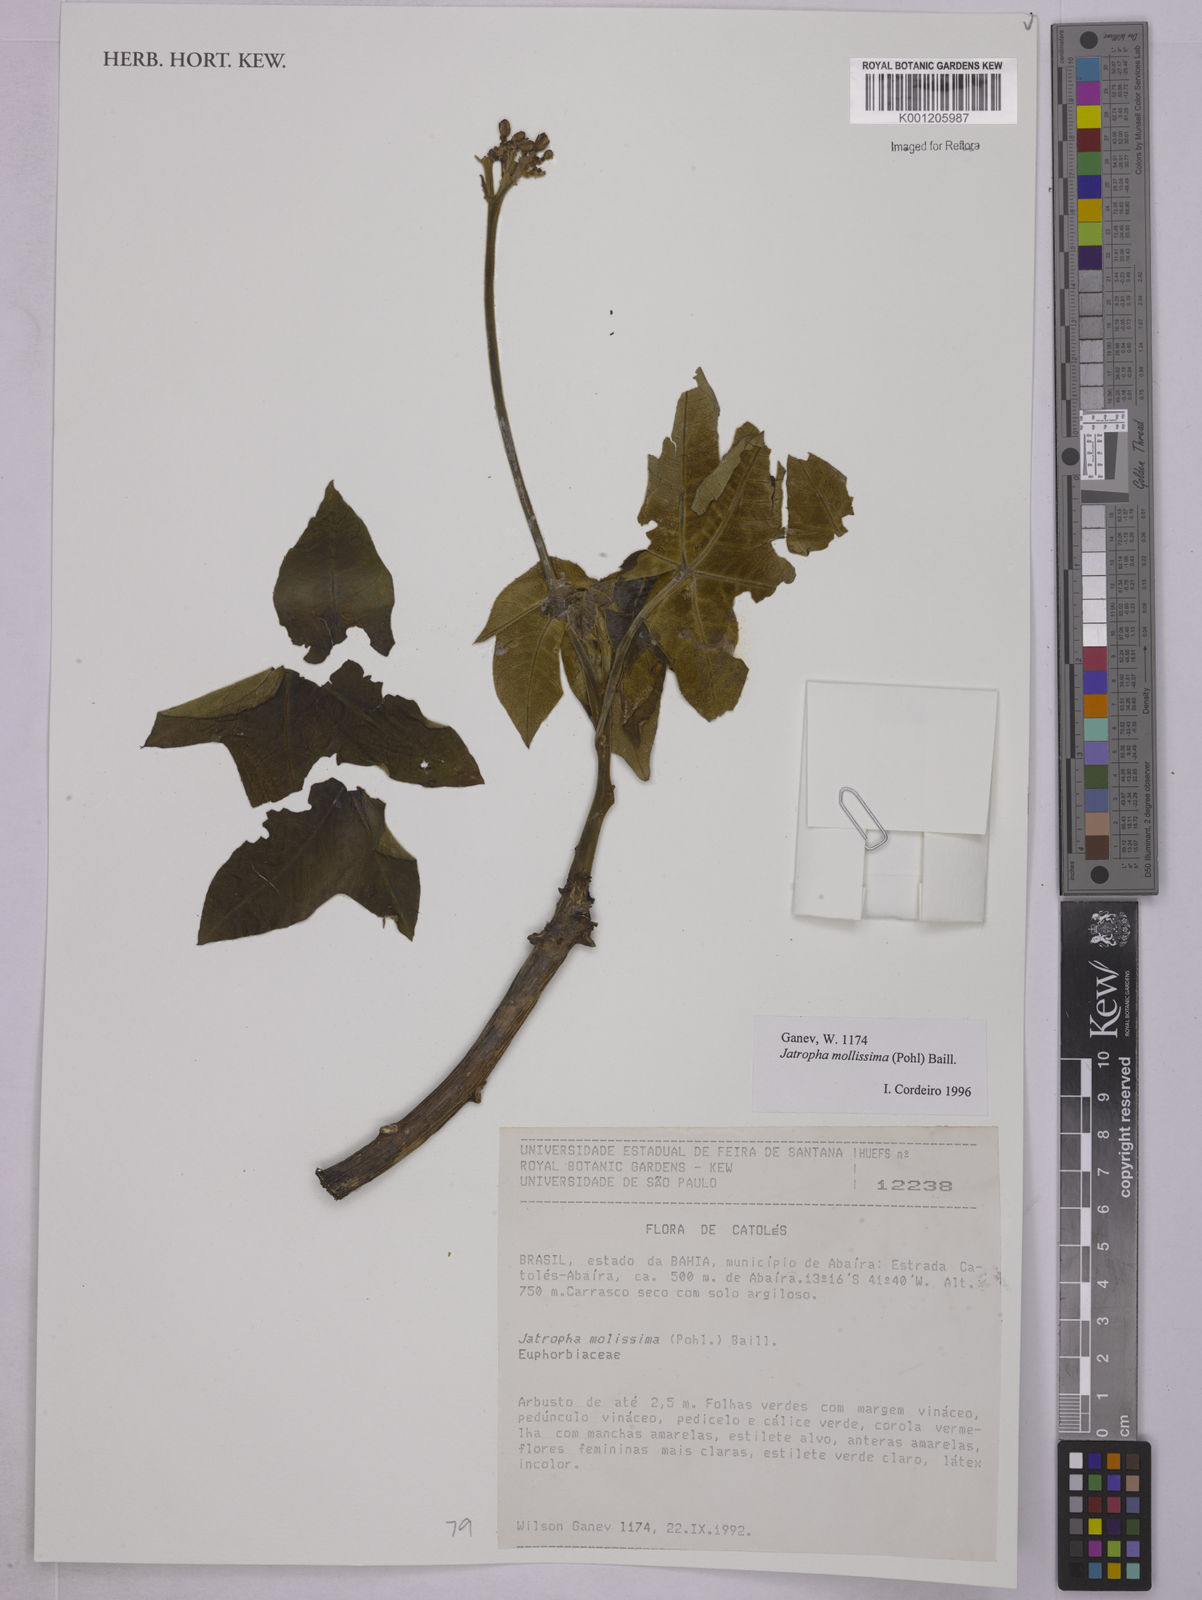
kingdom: Plantae
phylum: Tracheophyta
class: Magnoliopsida
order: Malpighiales
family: Euphorbiaceae
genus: Jatropha
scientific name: Jatropha mollissima
